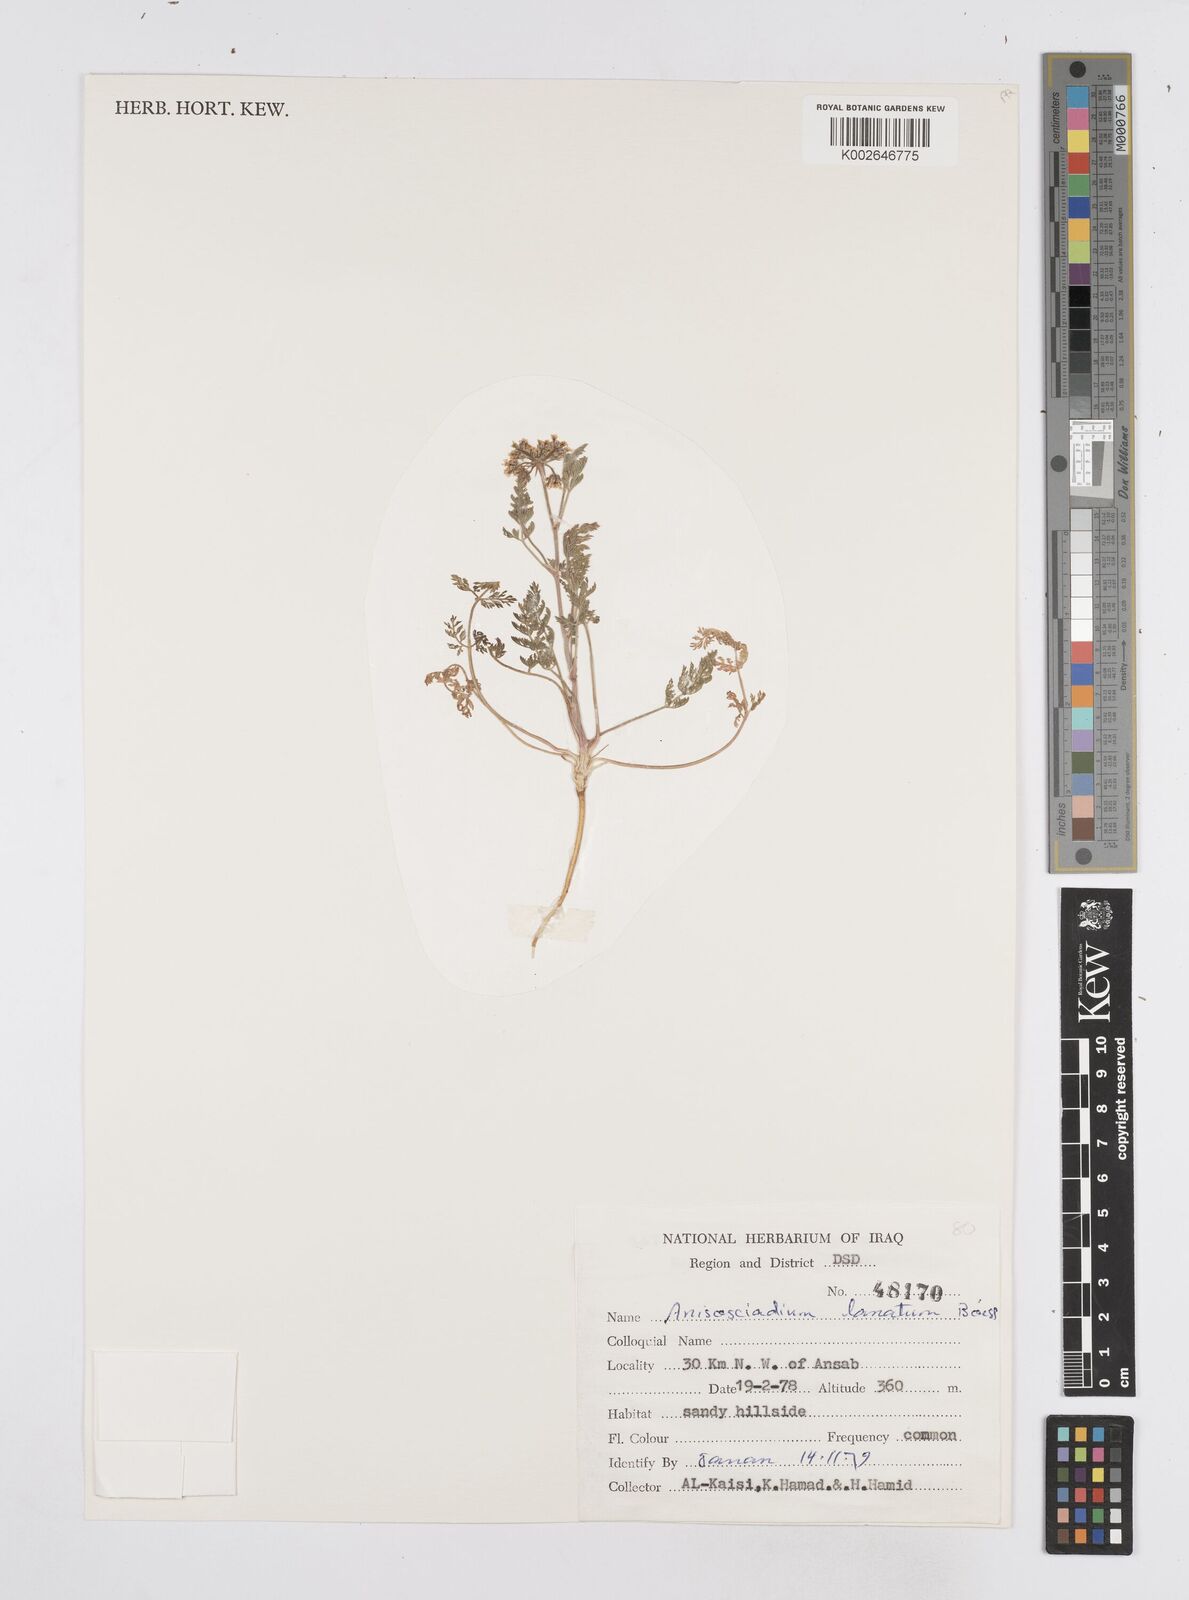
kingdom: Plantae
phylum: Tracheophyta
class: Magnoliopsida
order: Apiales
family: Apiaceae
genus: Anisosciadium
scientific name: Anisosciadium lanatum
